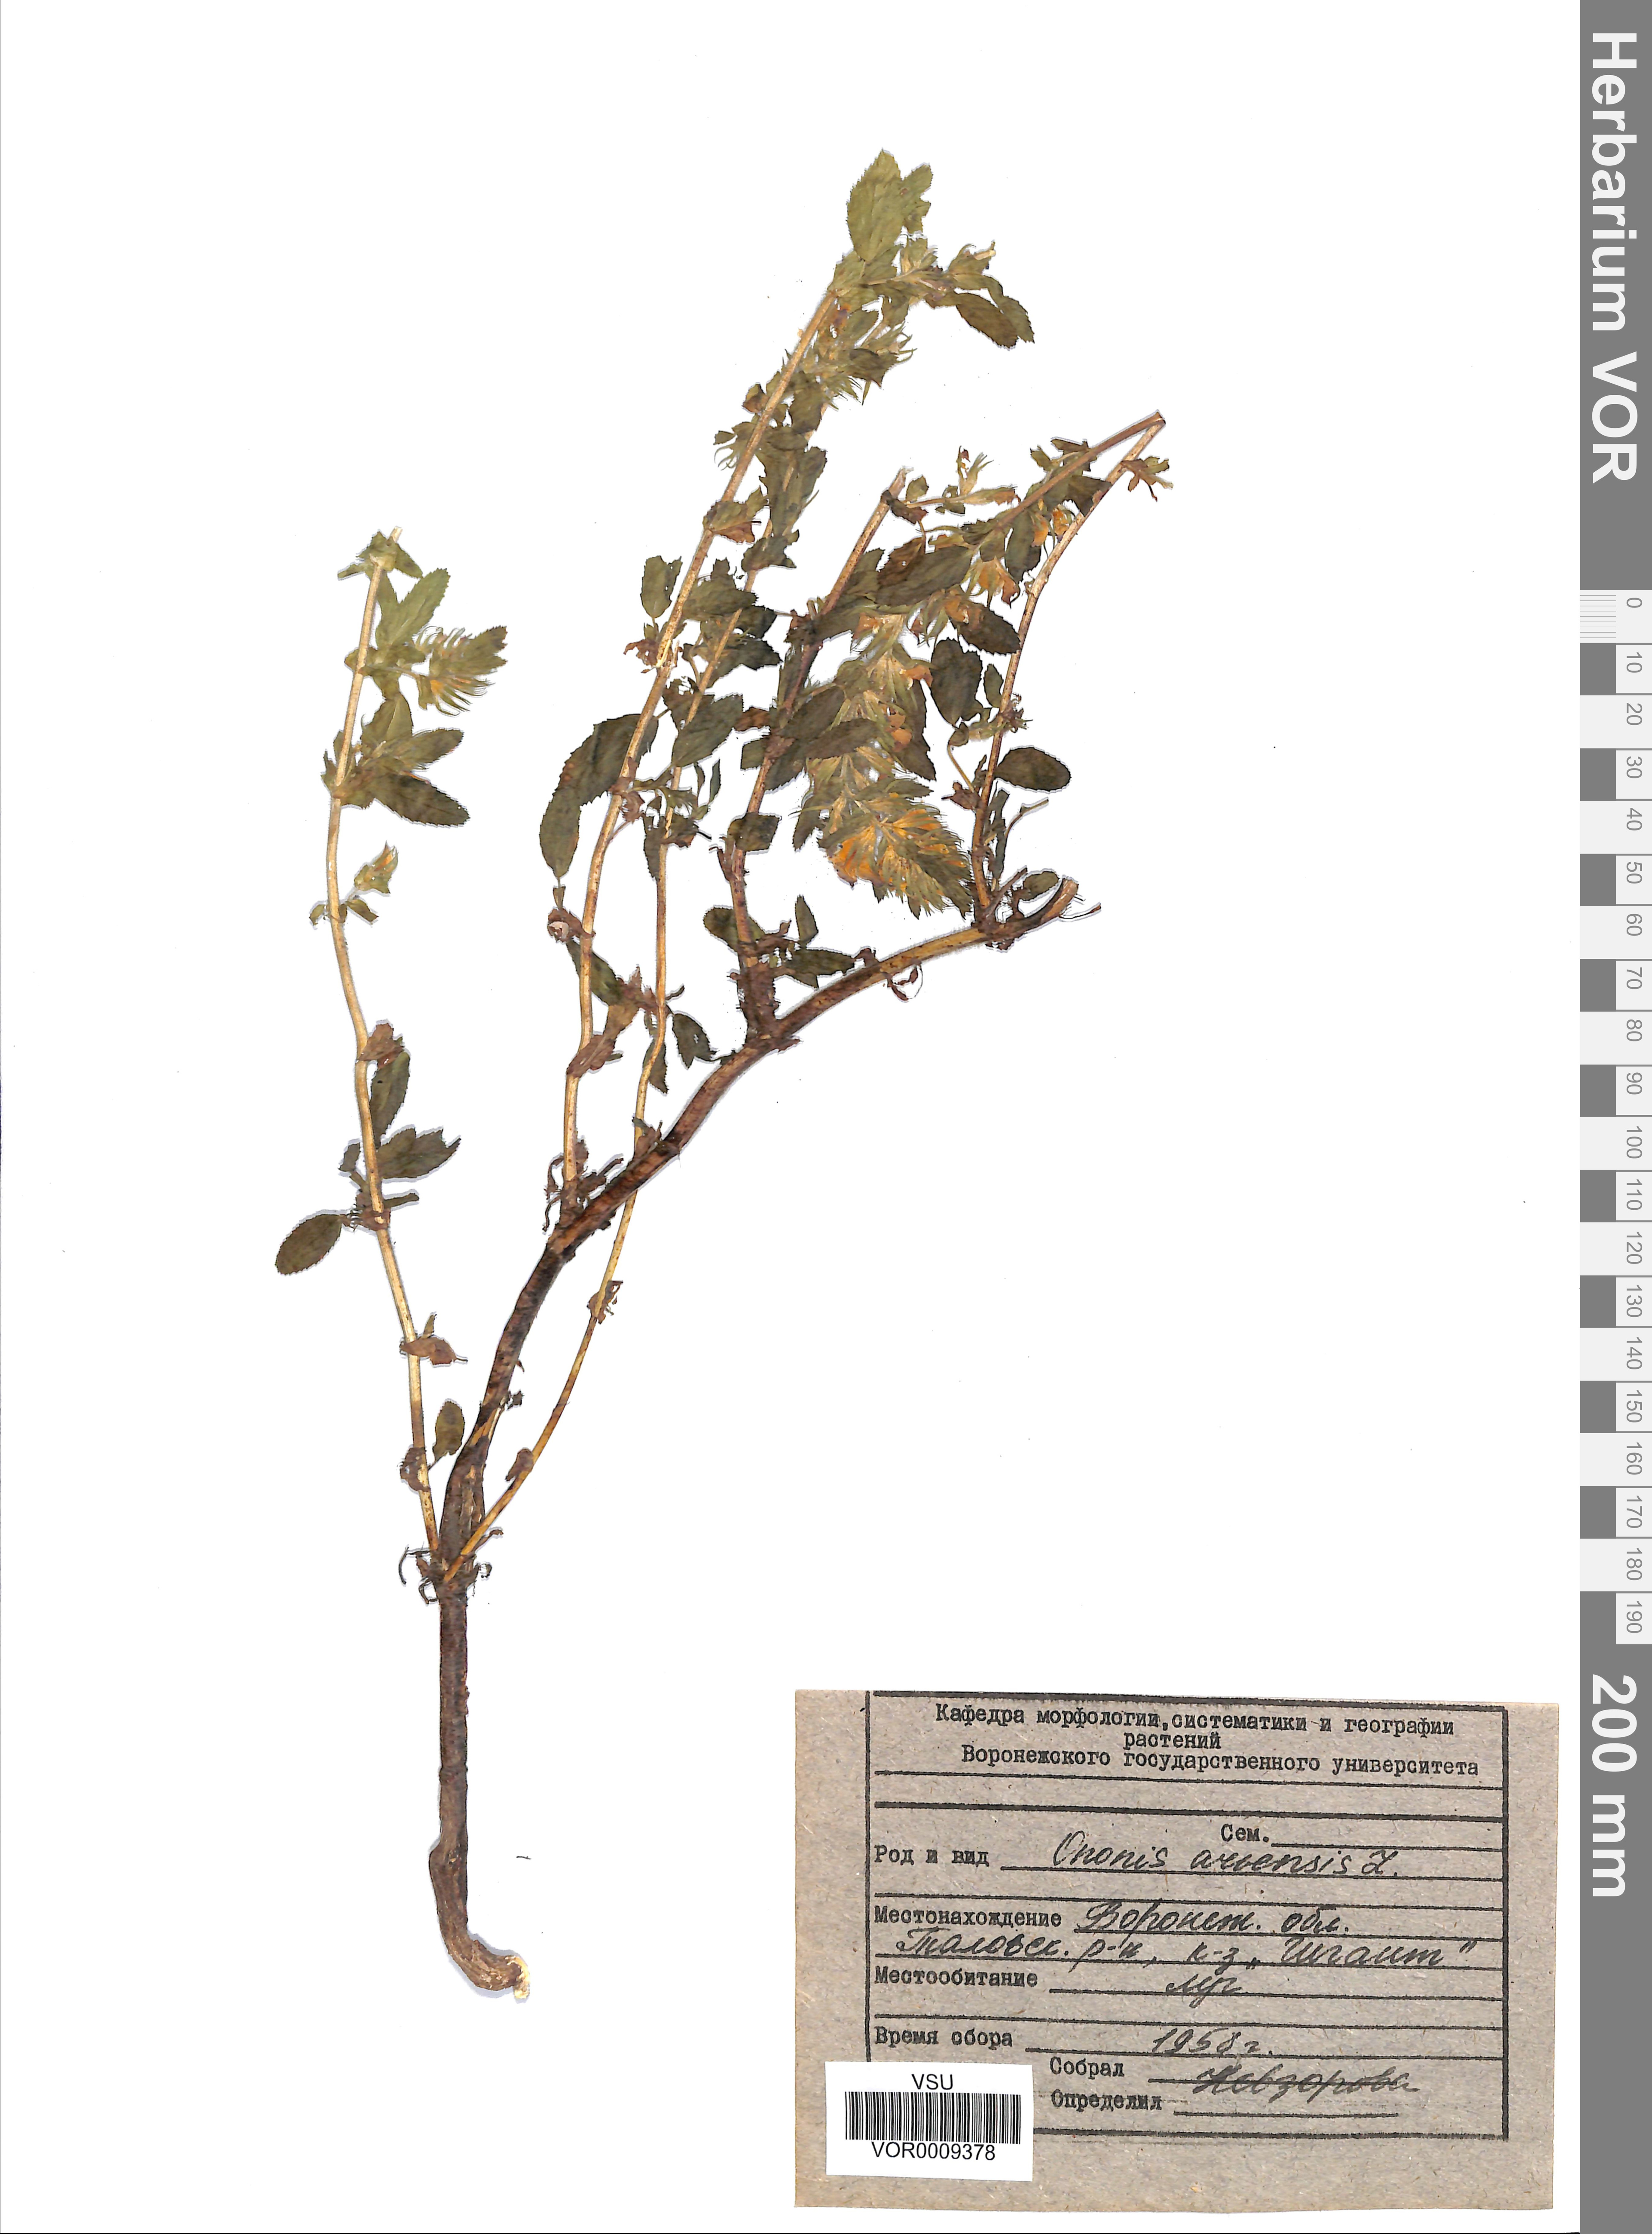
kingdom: Plantae
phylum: Tracheophyta
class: Magnoliopsida
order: Fabales
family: Fabaceae
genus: Ononis
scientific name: Ononis arvensis
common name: Field restharrow
